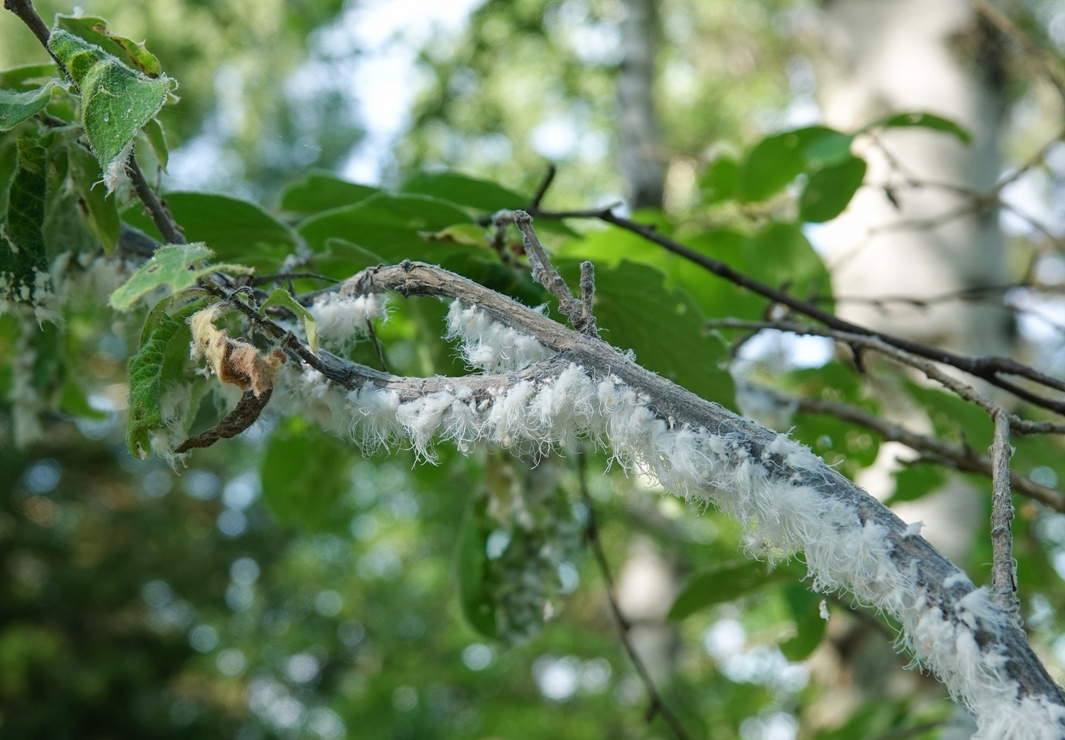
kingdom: Animalia
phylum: Arthropoda
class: Insecta
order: Hemiptera
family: Aphididae
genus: Prociphilus
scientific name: Prociphilus xylostei
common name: Aphid
